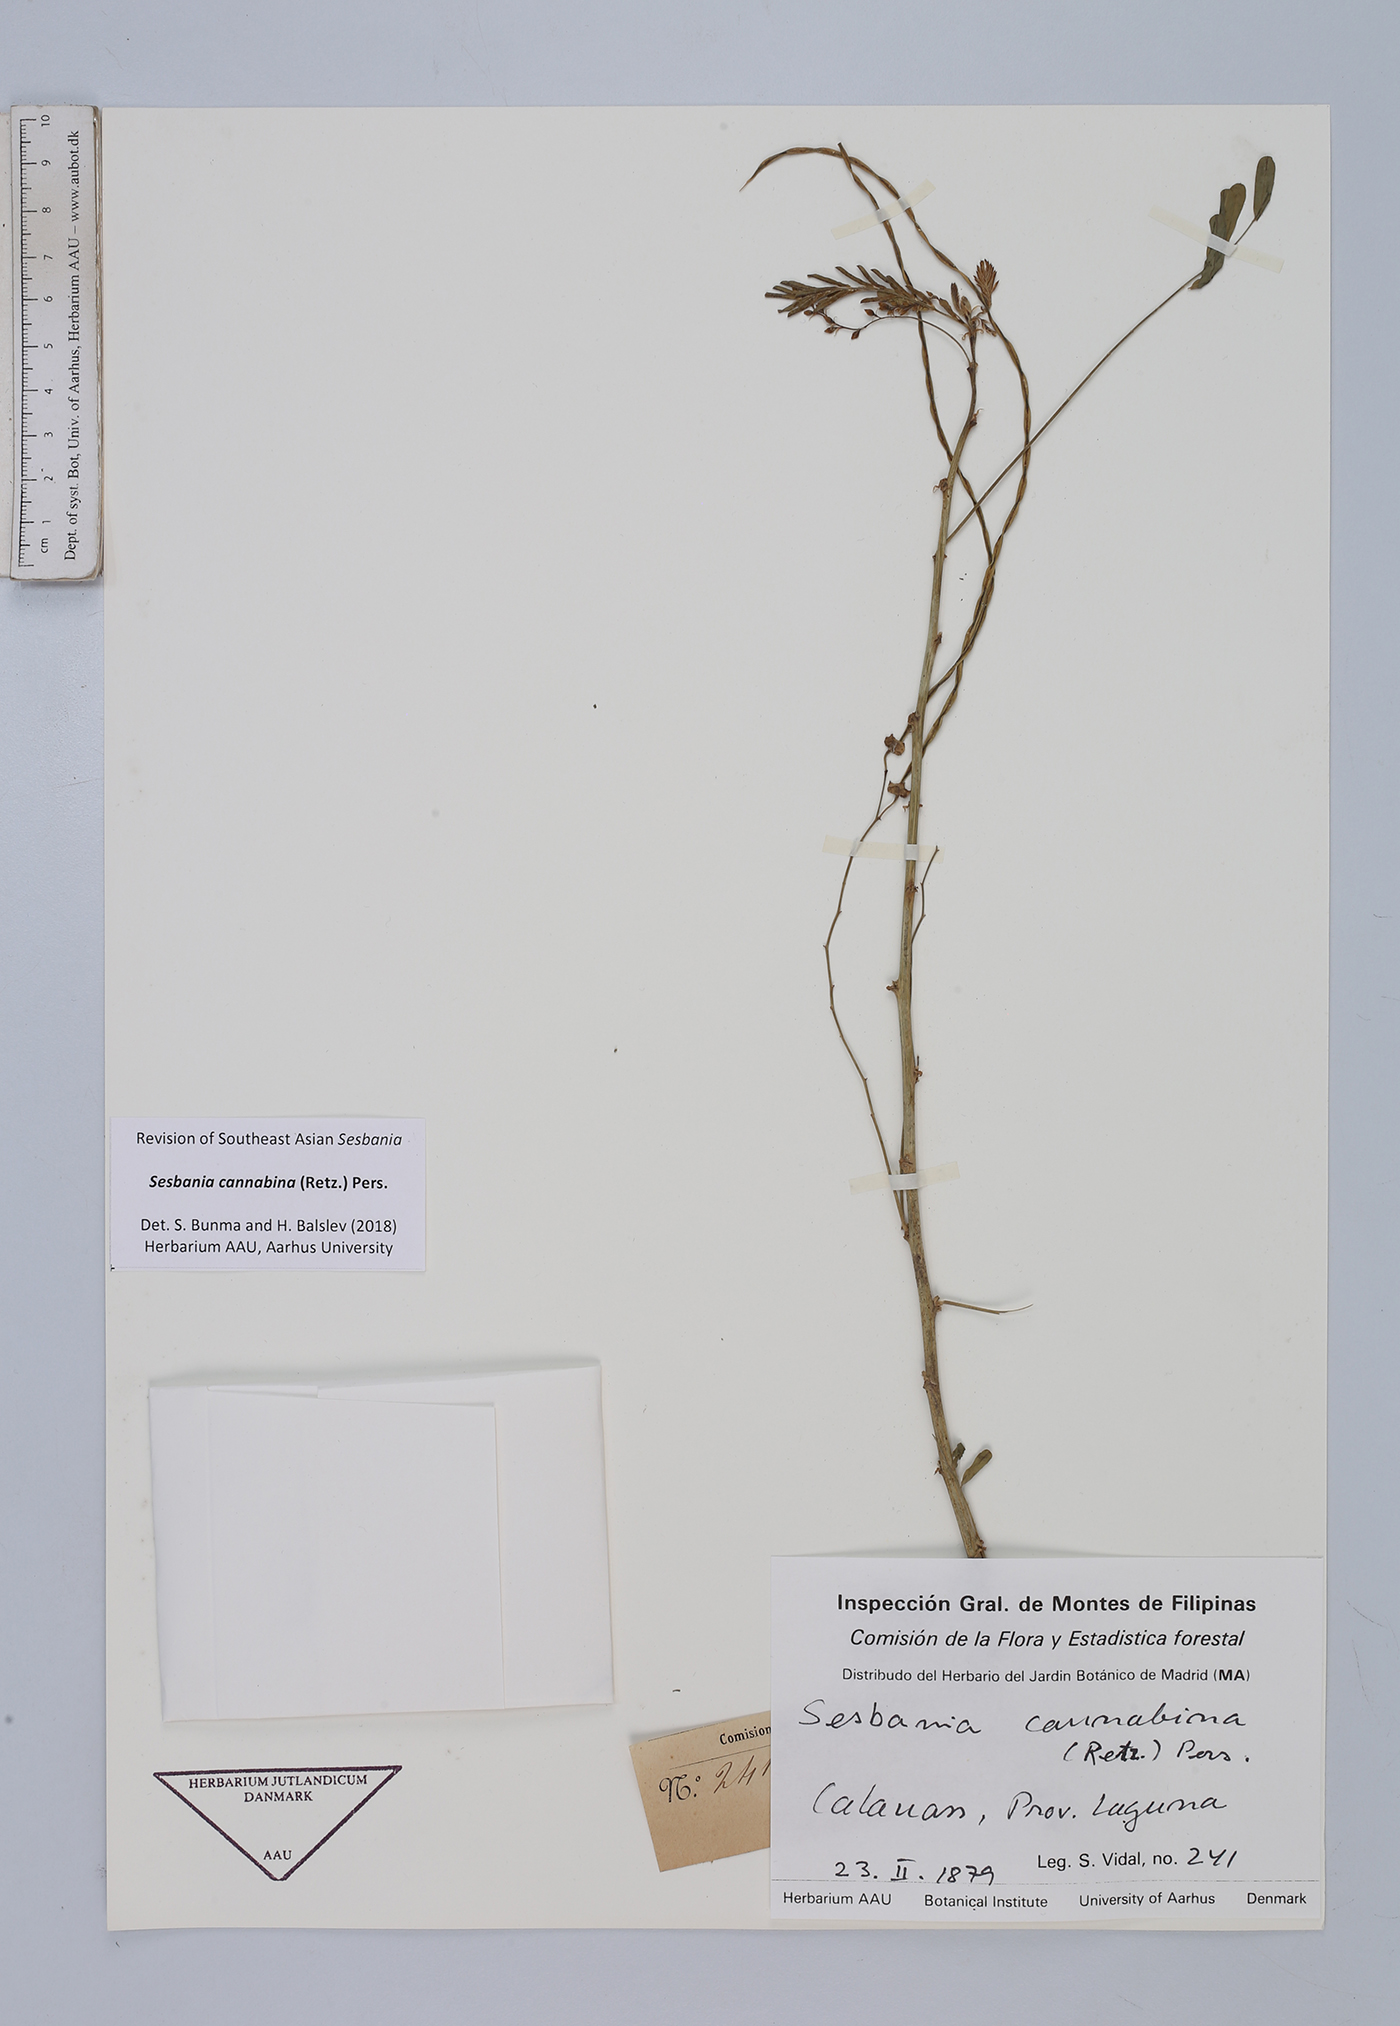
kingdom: Plantae
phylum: Tracheophyta
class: Magnoliopsida
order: Fabales
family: Fabaceae
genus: Sesbania
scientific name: Sesbania sesban
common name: Egyptian sesban
